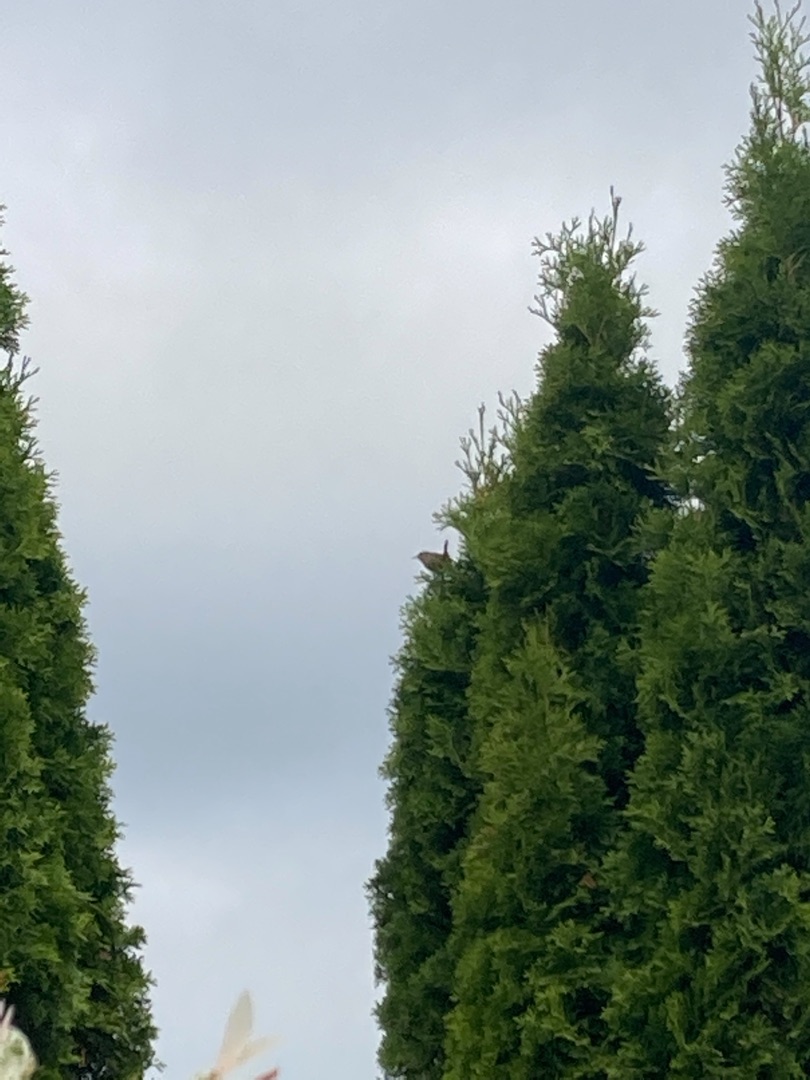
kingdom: Animalia
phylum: Chordata
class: Aves
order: Passeriformes
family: Troglodytidae
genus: Troglodytes
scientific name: Troglodytes troglodytes
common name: Gærdesmutte
